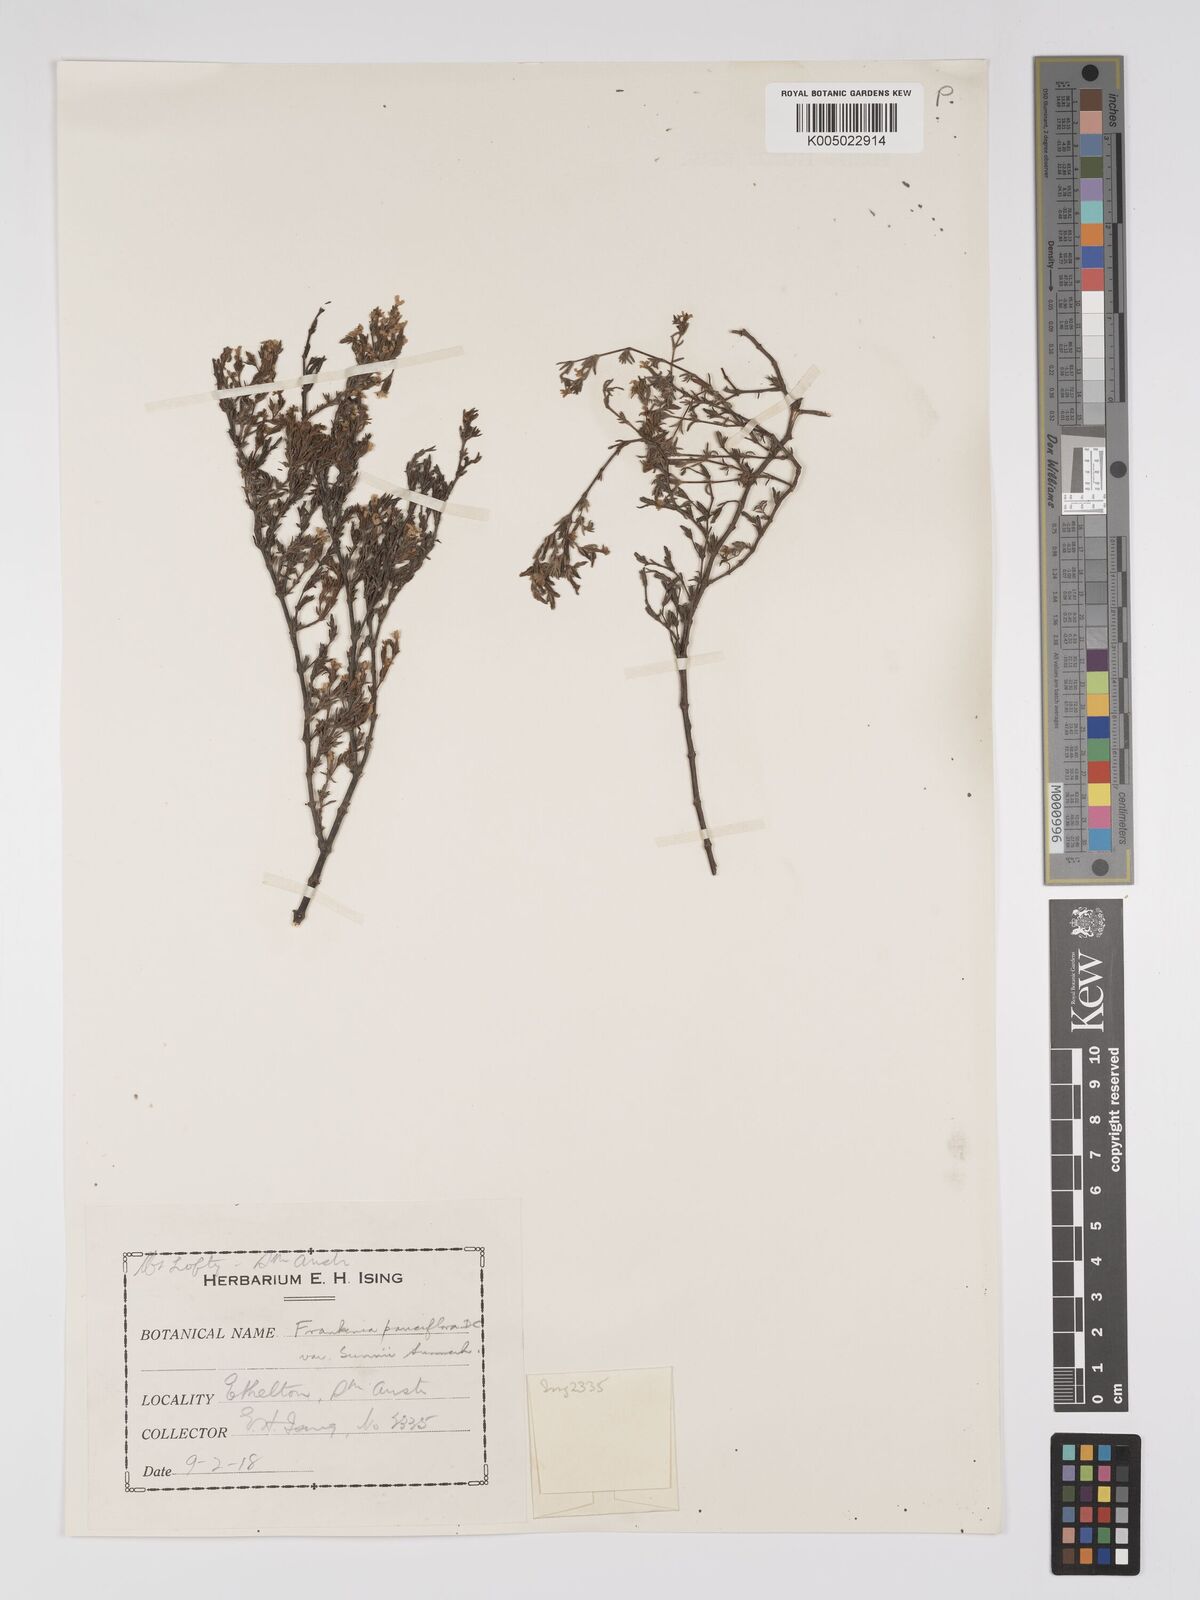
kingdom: Plantae
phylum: Tracheophyta
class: Magnoliopsida
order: Caryophyllales
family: Frankeniaceae
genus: Frankenia
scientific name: Frankenia pauciflora
